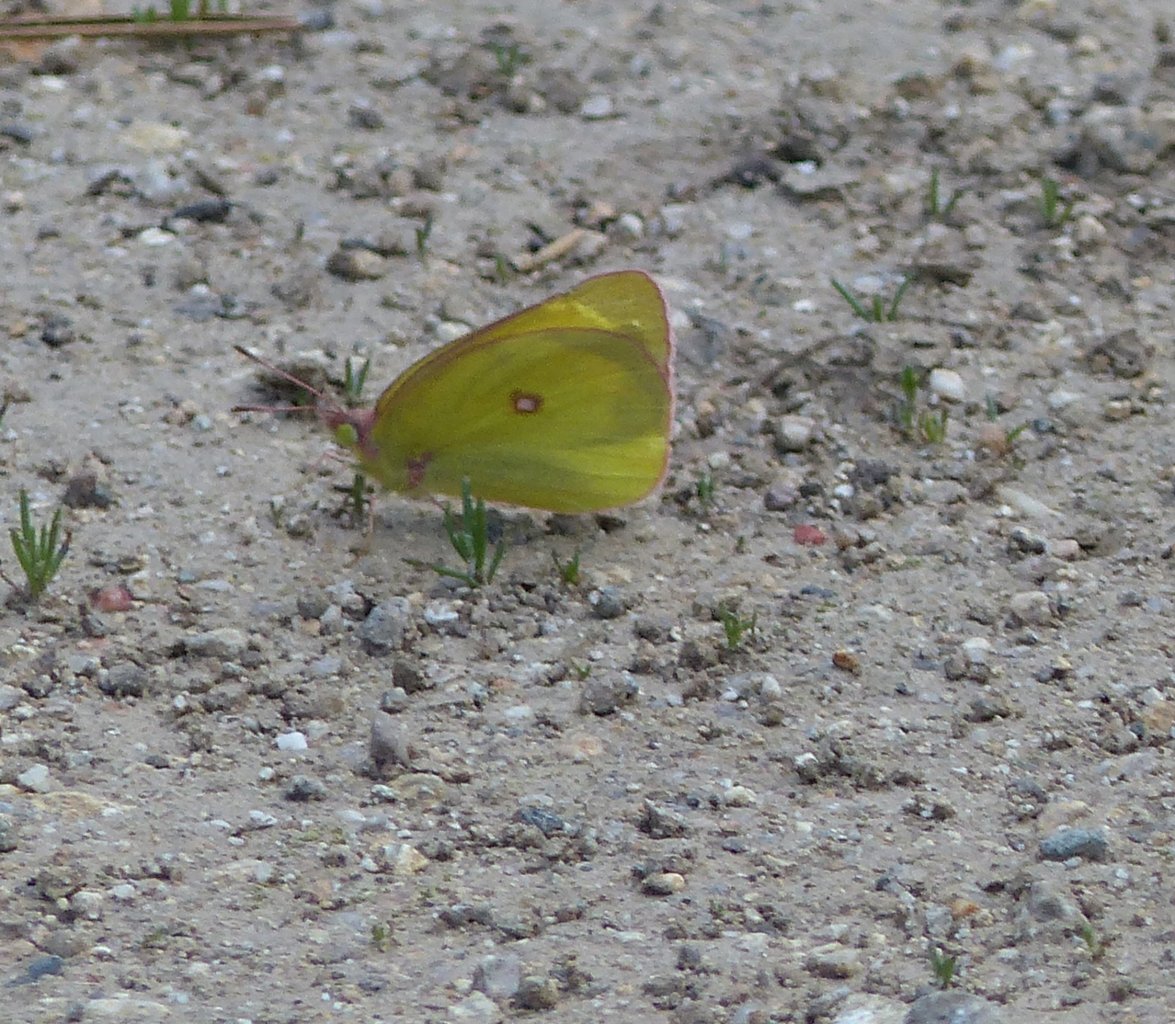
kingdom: Animalia
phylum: Arthropoda
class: Insecta
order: Lepidoptera
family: Pieridae
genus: Colias
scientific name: Colias interior
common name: Pink-edged Sulphur
